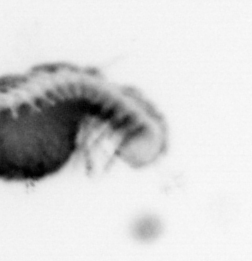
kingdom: Animalia
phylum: Annelida
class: Polychaeta
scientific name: Polychaeta
